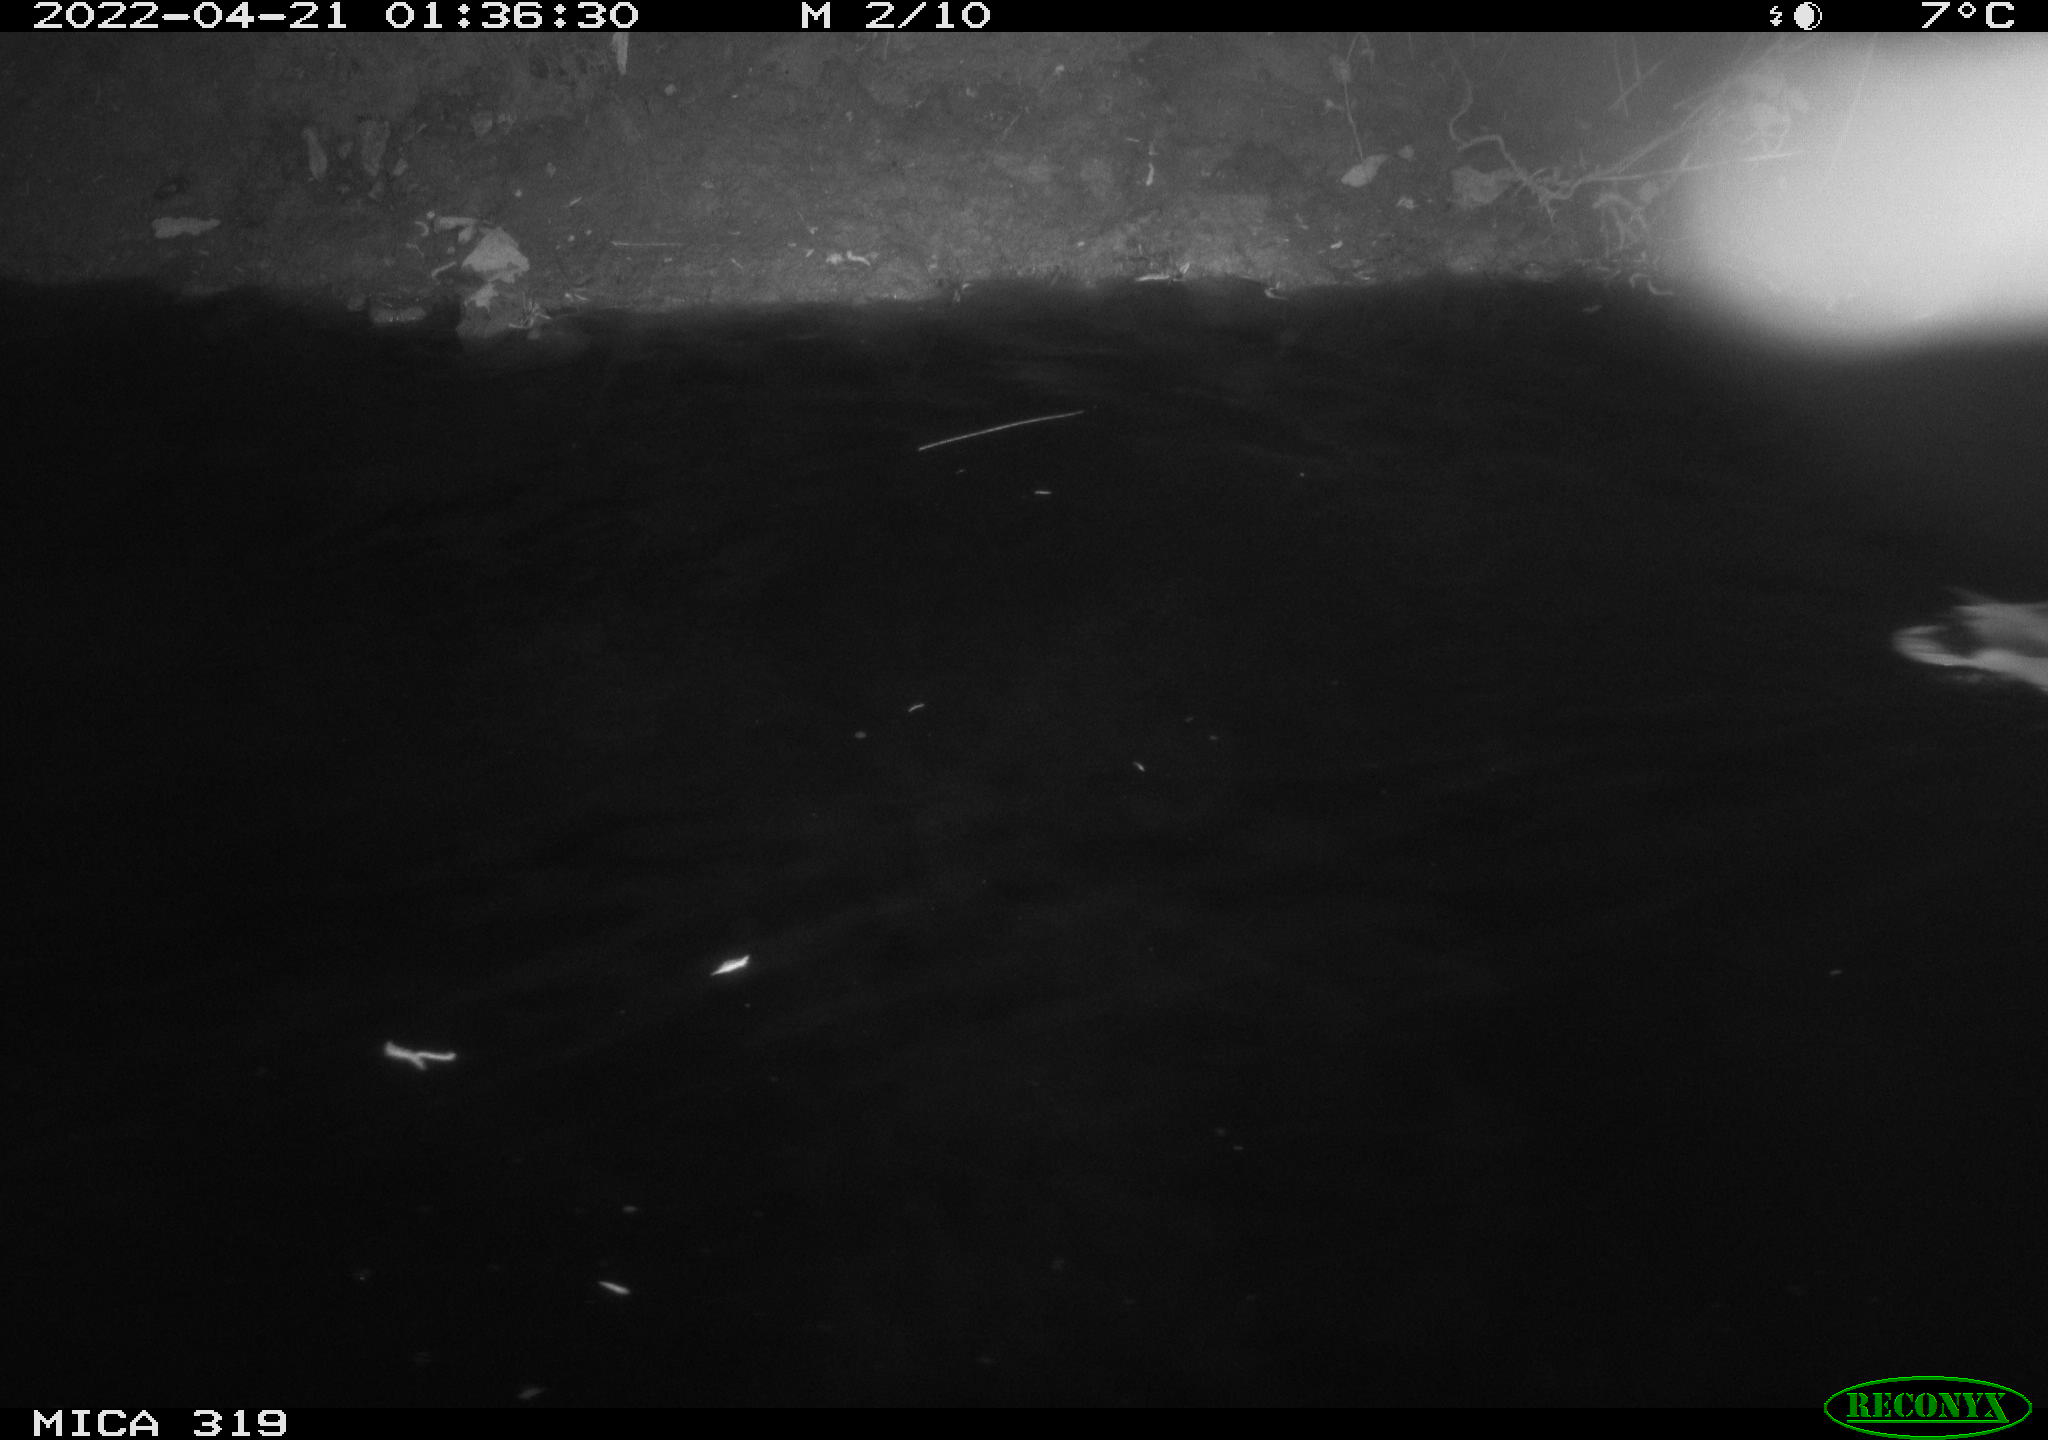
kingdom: Animalia
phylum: Chordata
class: Aves
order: Anseriformes
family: Anatidae
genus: Anas
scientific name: Anas platyrhynchos
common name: Mallard
